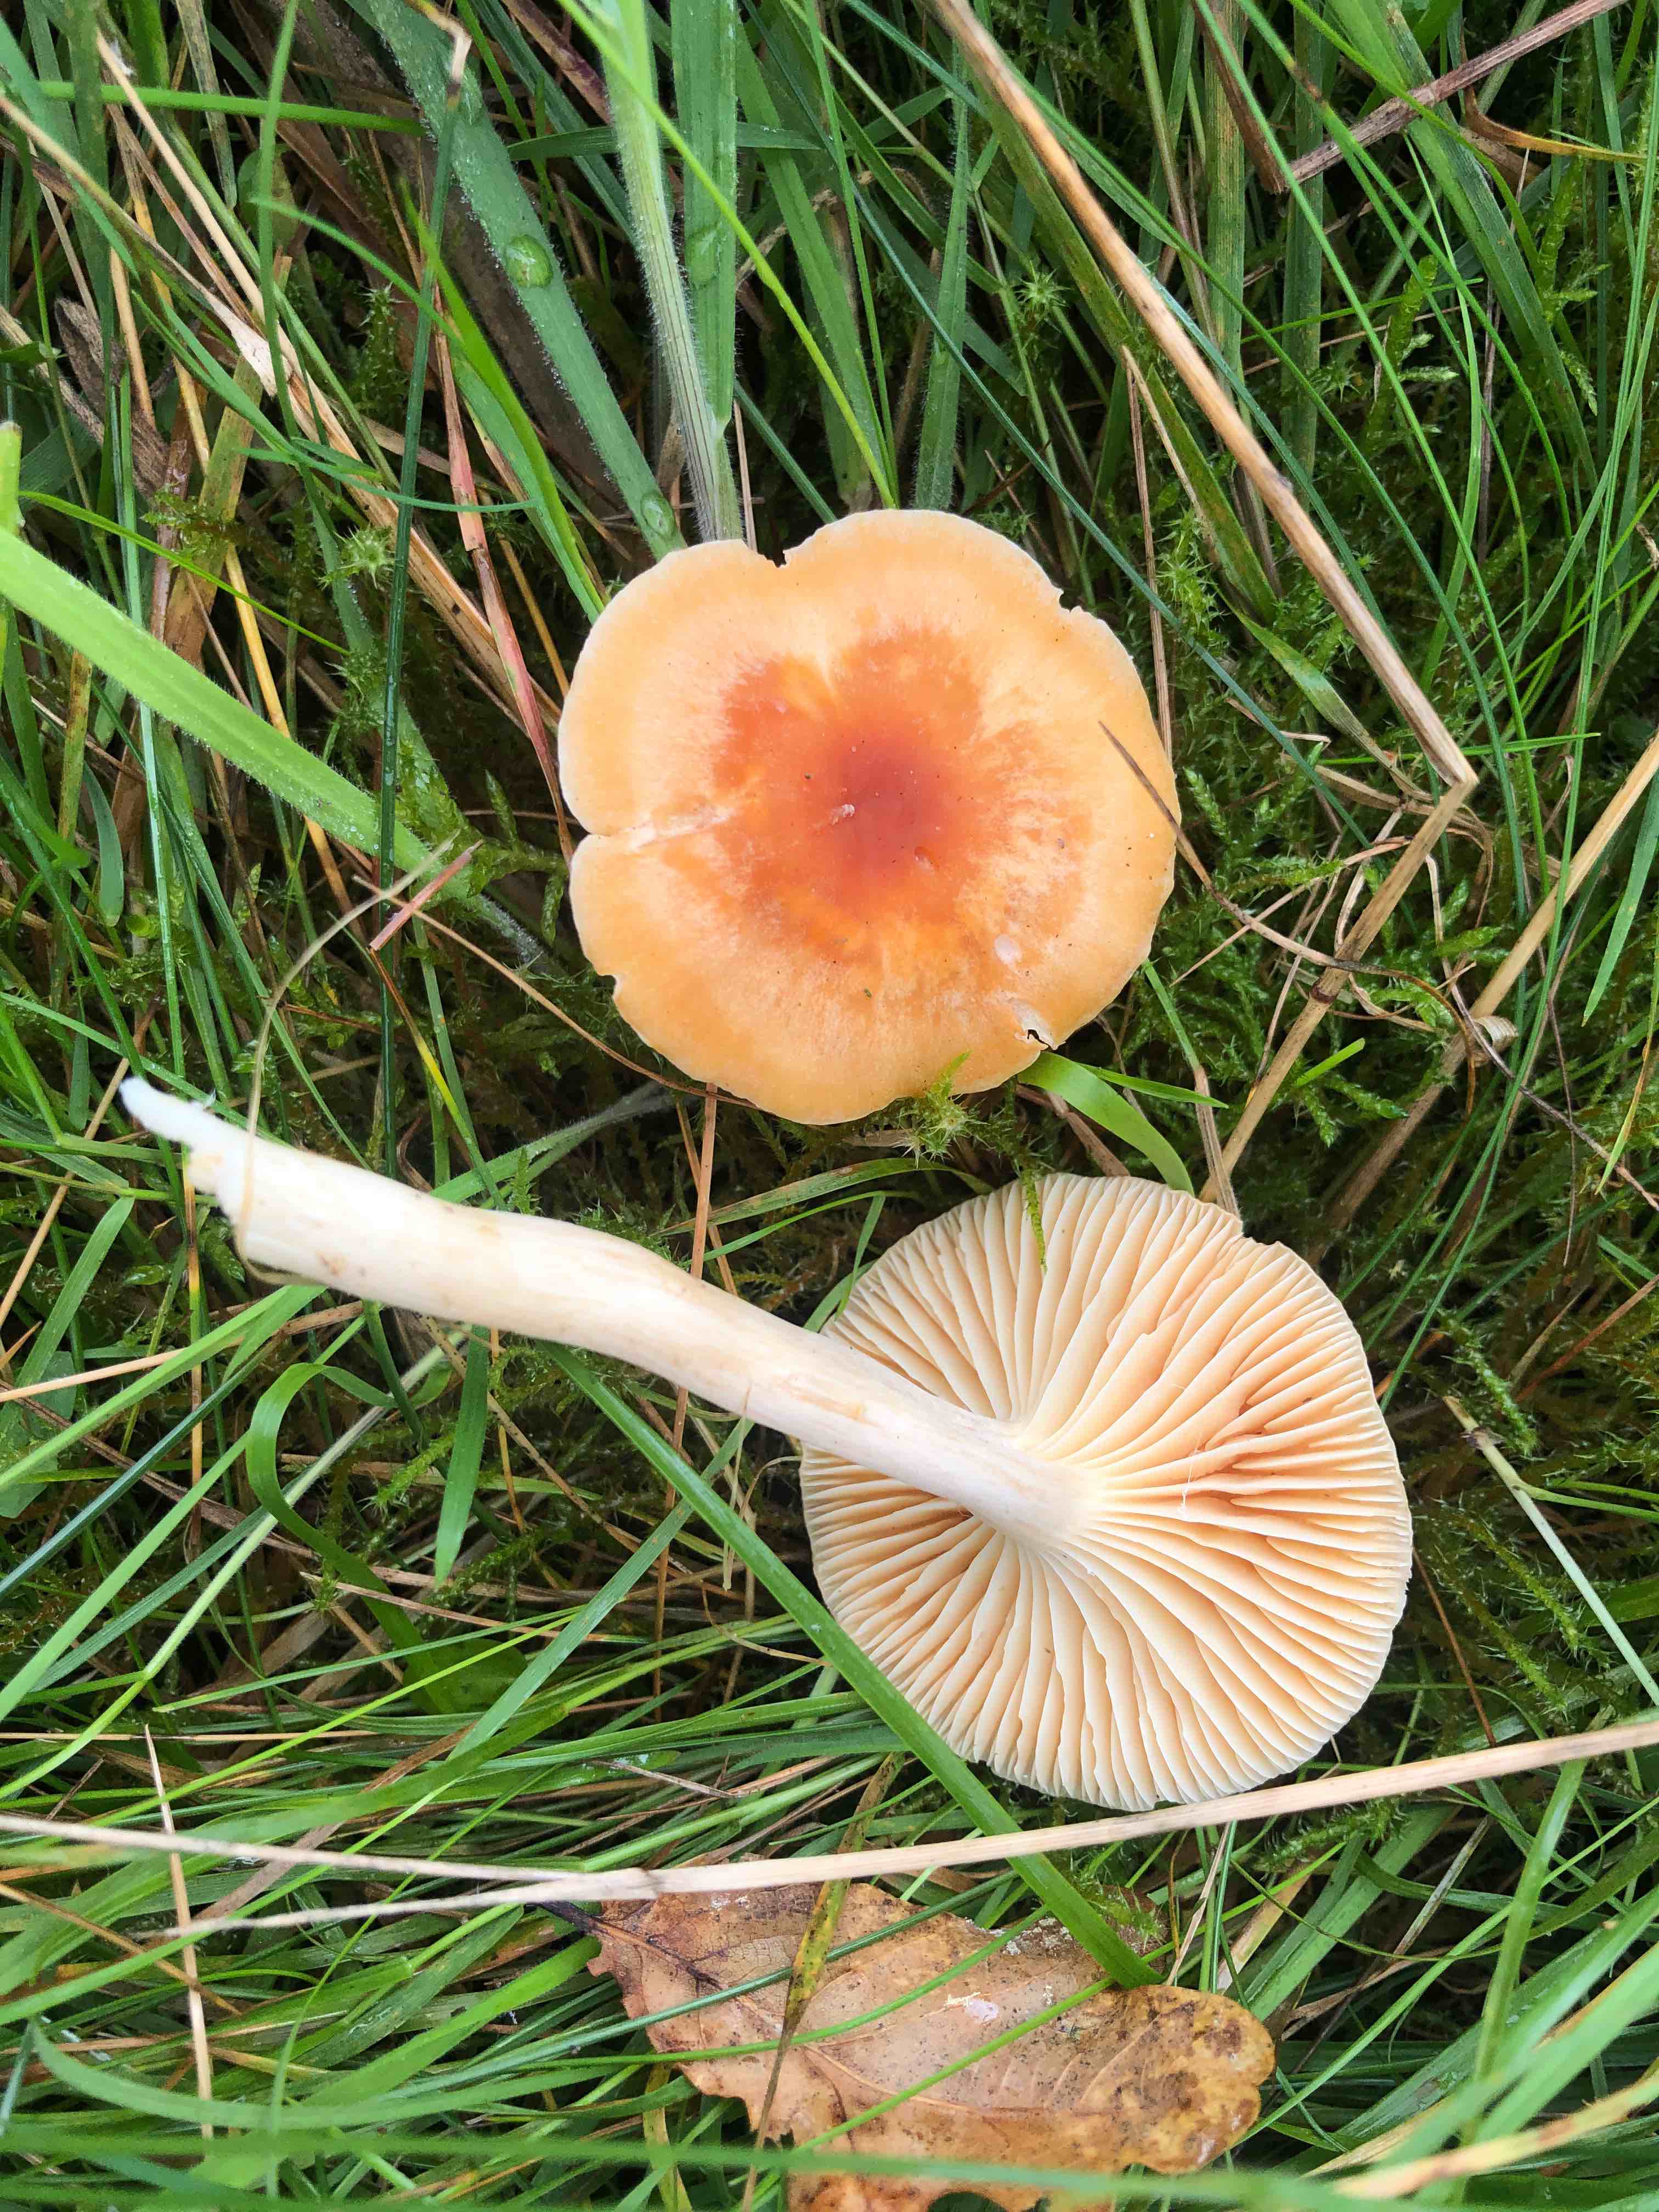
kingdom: Fungi
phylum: Basidiomycota
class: Agaricomycetes
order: Agaricales
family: Hygrophoraceae
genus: Cuphophyllus
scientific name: Cuphophyllus pratensis
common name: eng-vokshat
